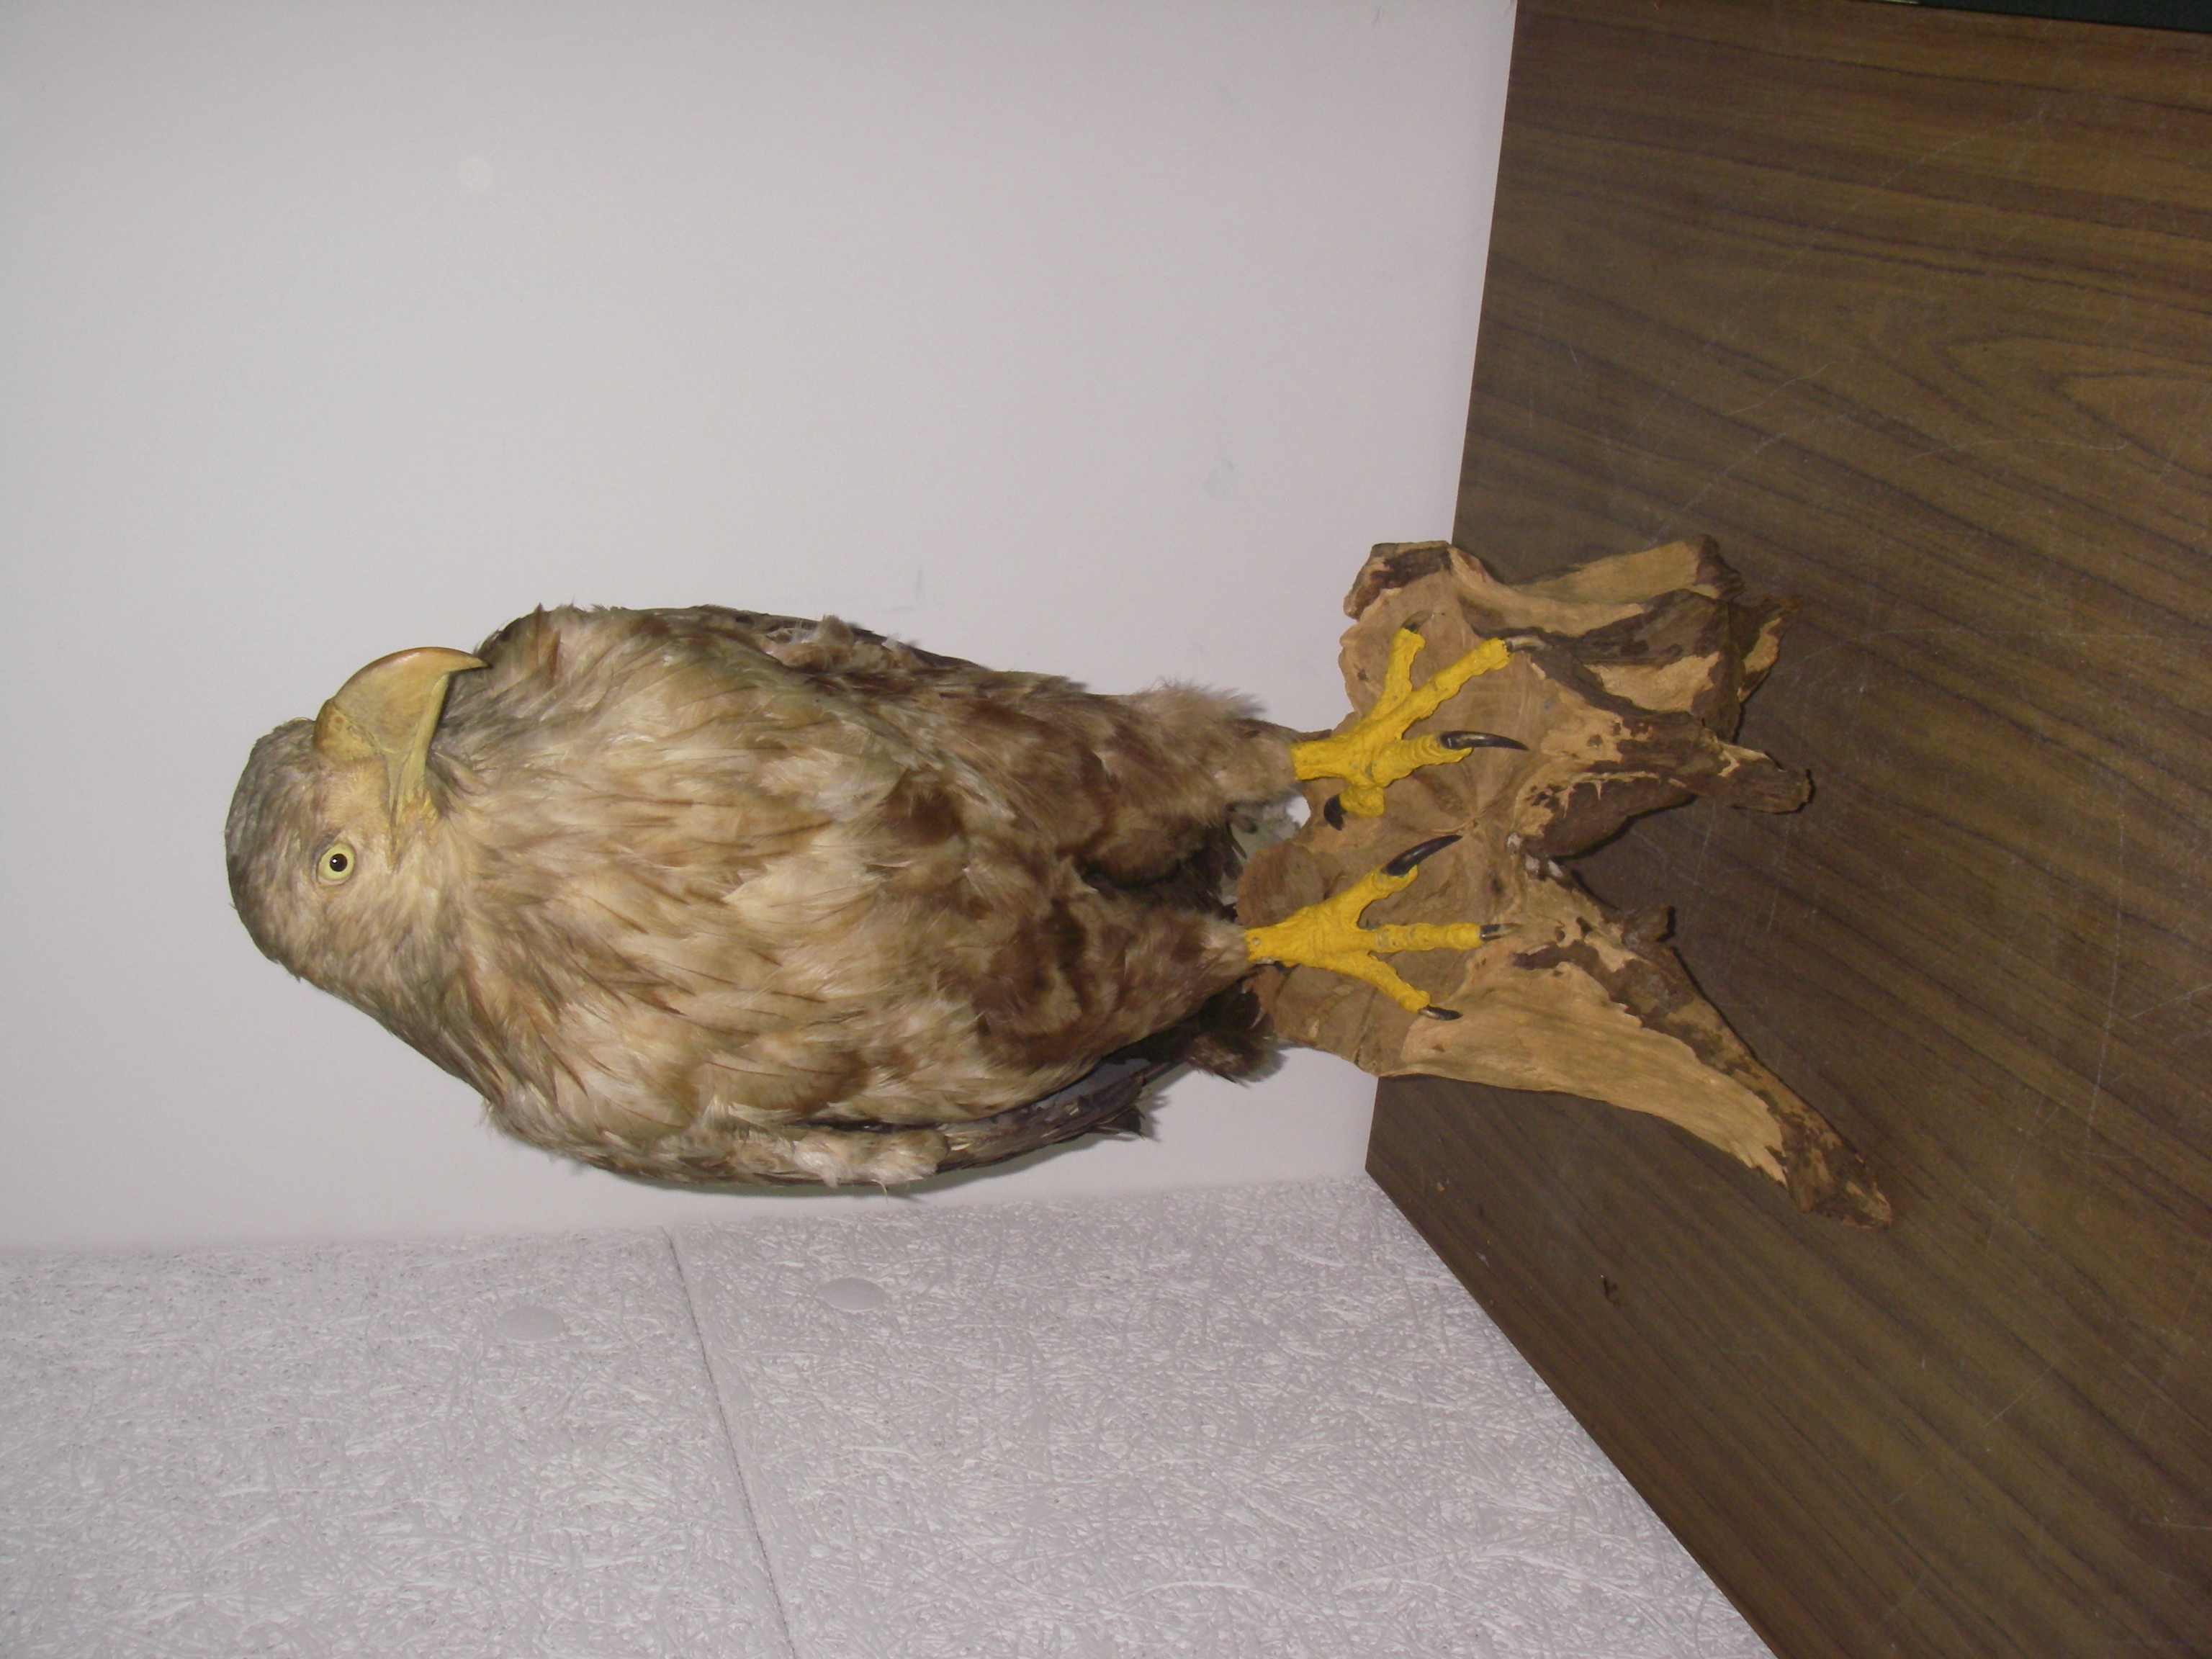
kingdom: Animalia
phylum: Chordata
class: Aves
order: Accipitriformes
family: Accipitridae
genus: Haliaeetus
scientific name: Haliaeetus albicilla
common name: White-tailed eagle
